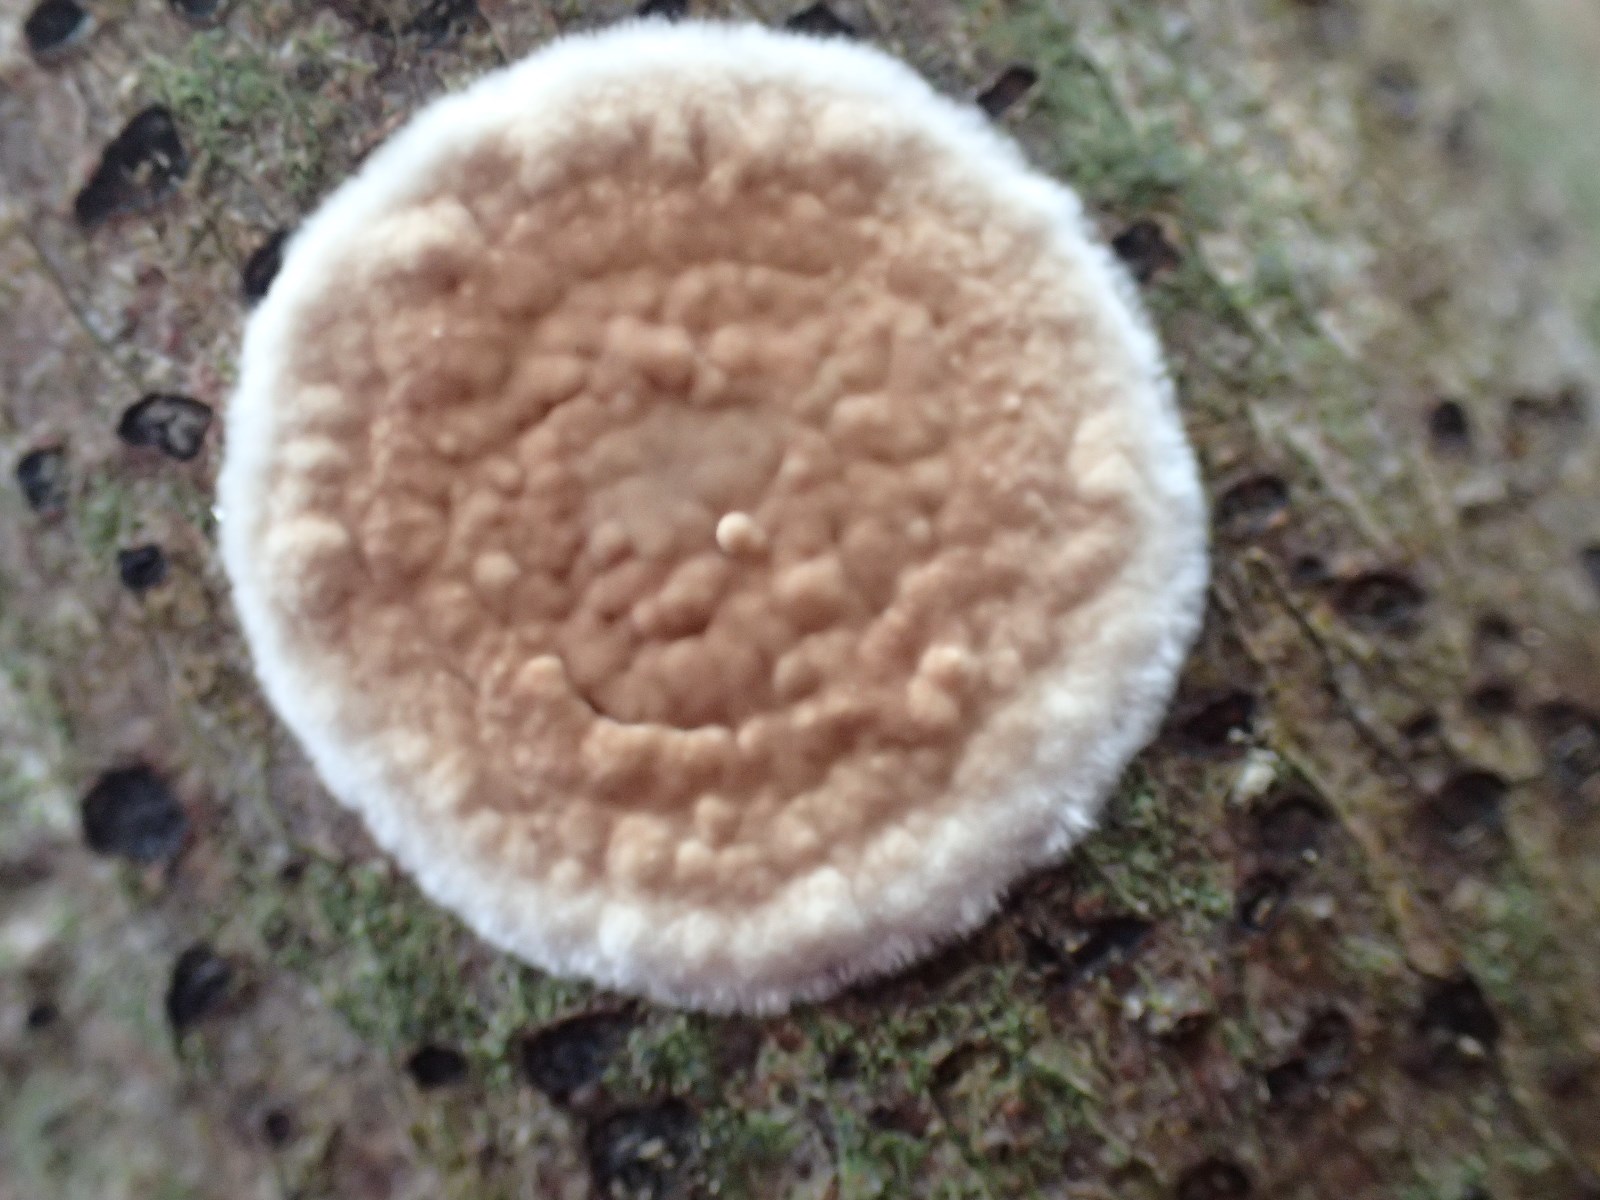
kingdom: Fungi
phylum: Basidiomycota
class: Agaricomycetes
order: Agaricales
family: Physalacriaceae
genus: Cylindrobasidium
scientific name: Cylindrobasidium evolvens
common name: sprækkehinde
